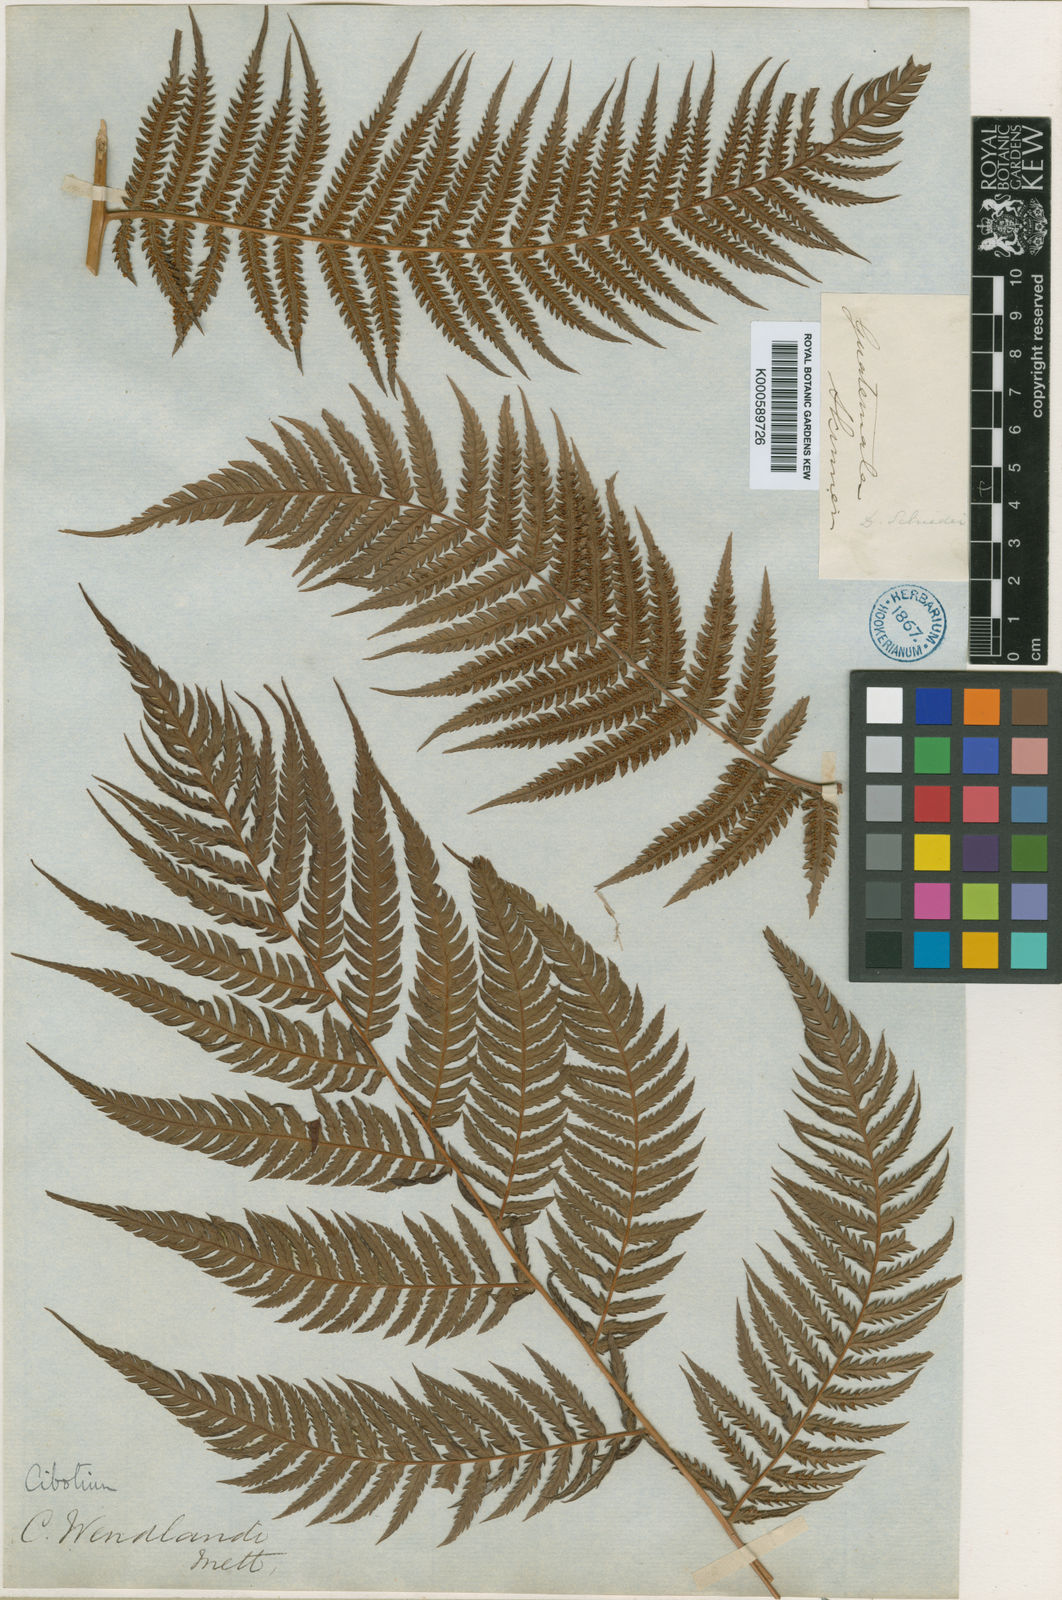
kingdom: Plantae
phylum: Tracheophyta
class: Polypodiopsida
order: Cyatheales
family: Cibotiaceae
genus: Cibotium
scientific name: Cibotium
